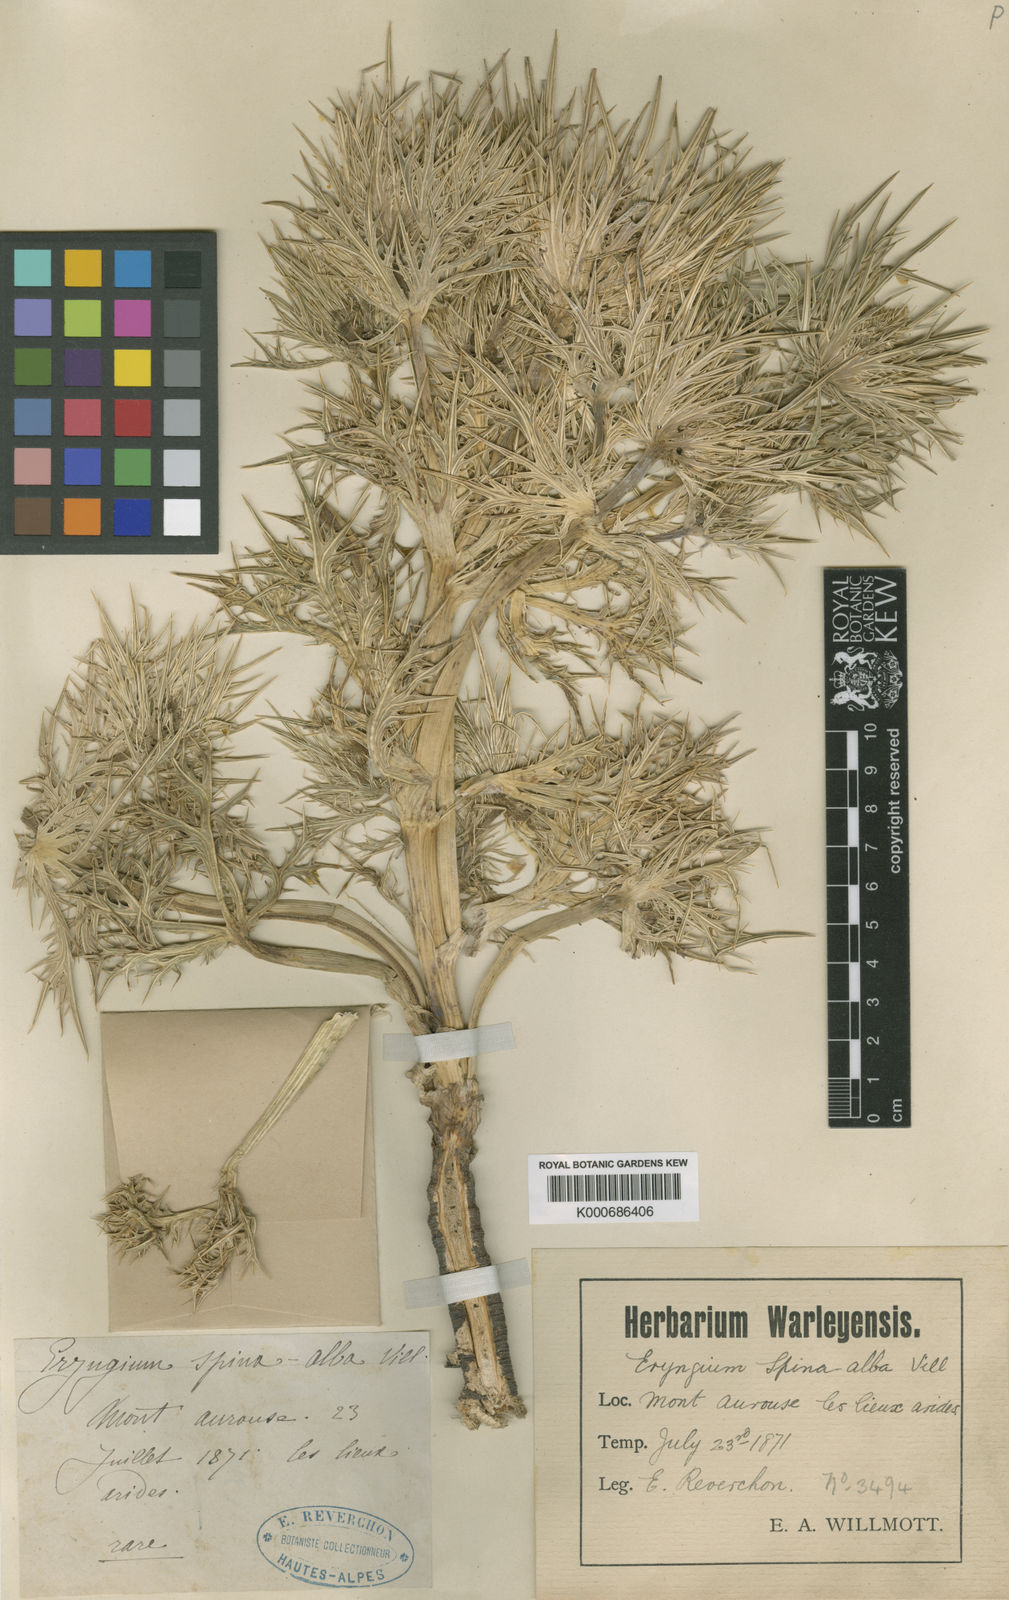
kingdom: Plantae
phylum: Tracheophyta
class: Magnoliopsida
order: Apiales
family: Apiaceae
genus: Eryngium
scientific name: Eryngium spinalba
